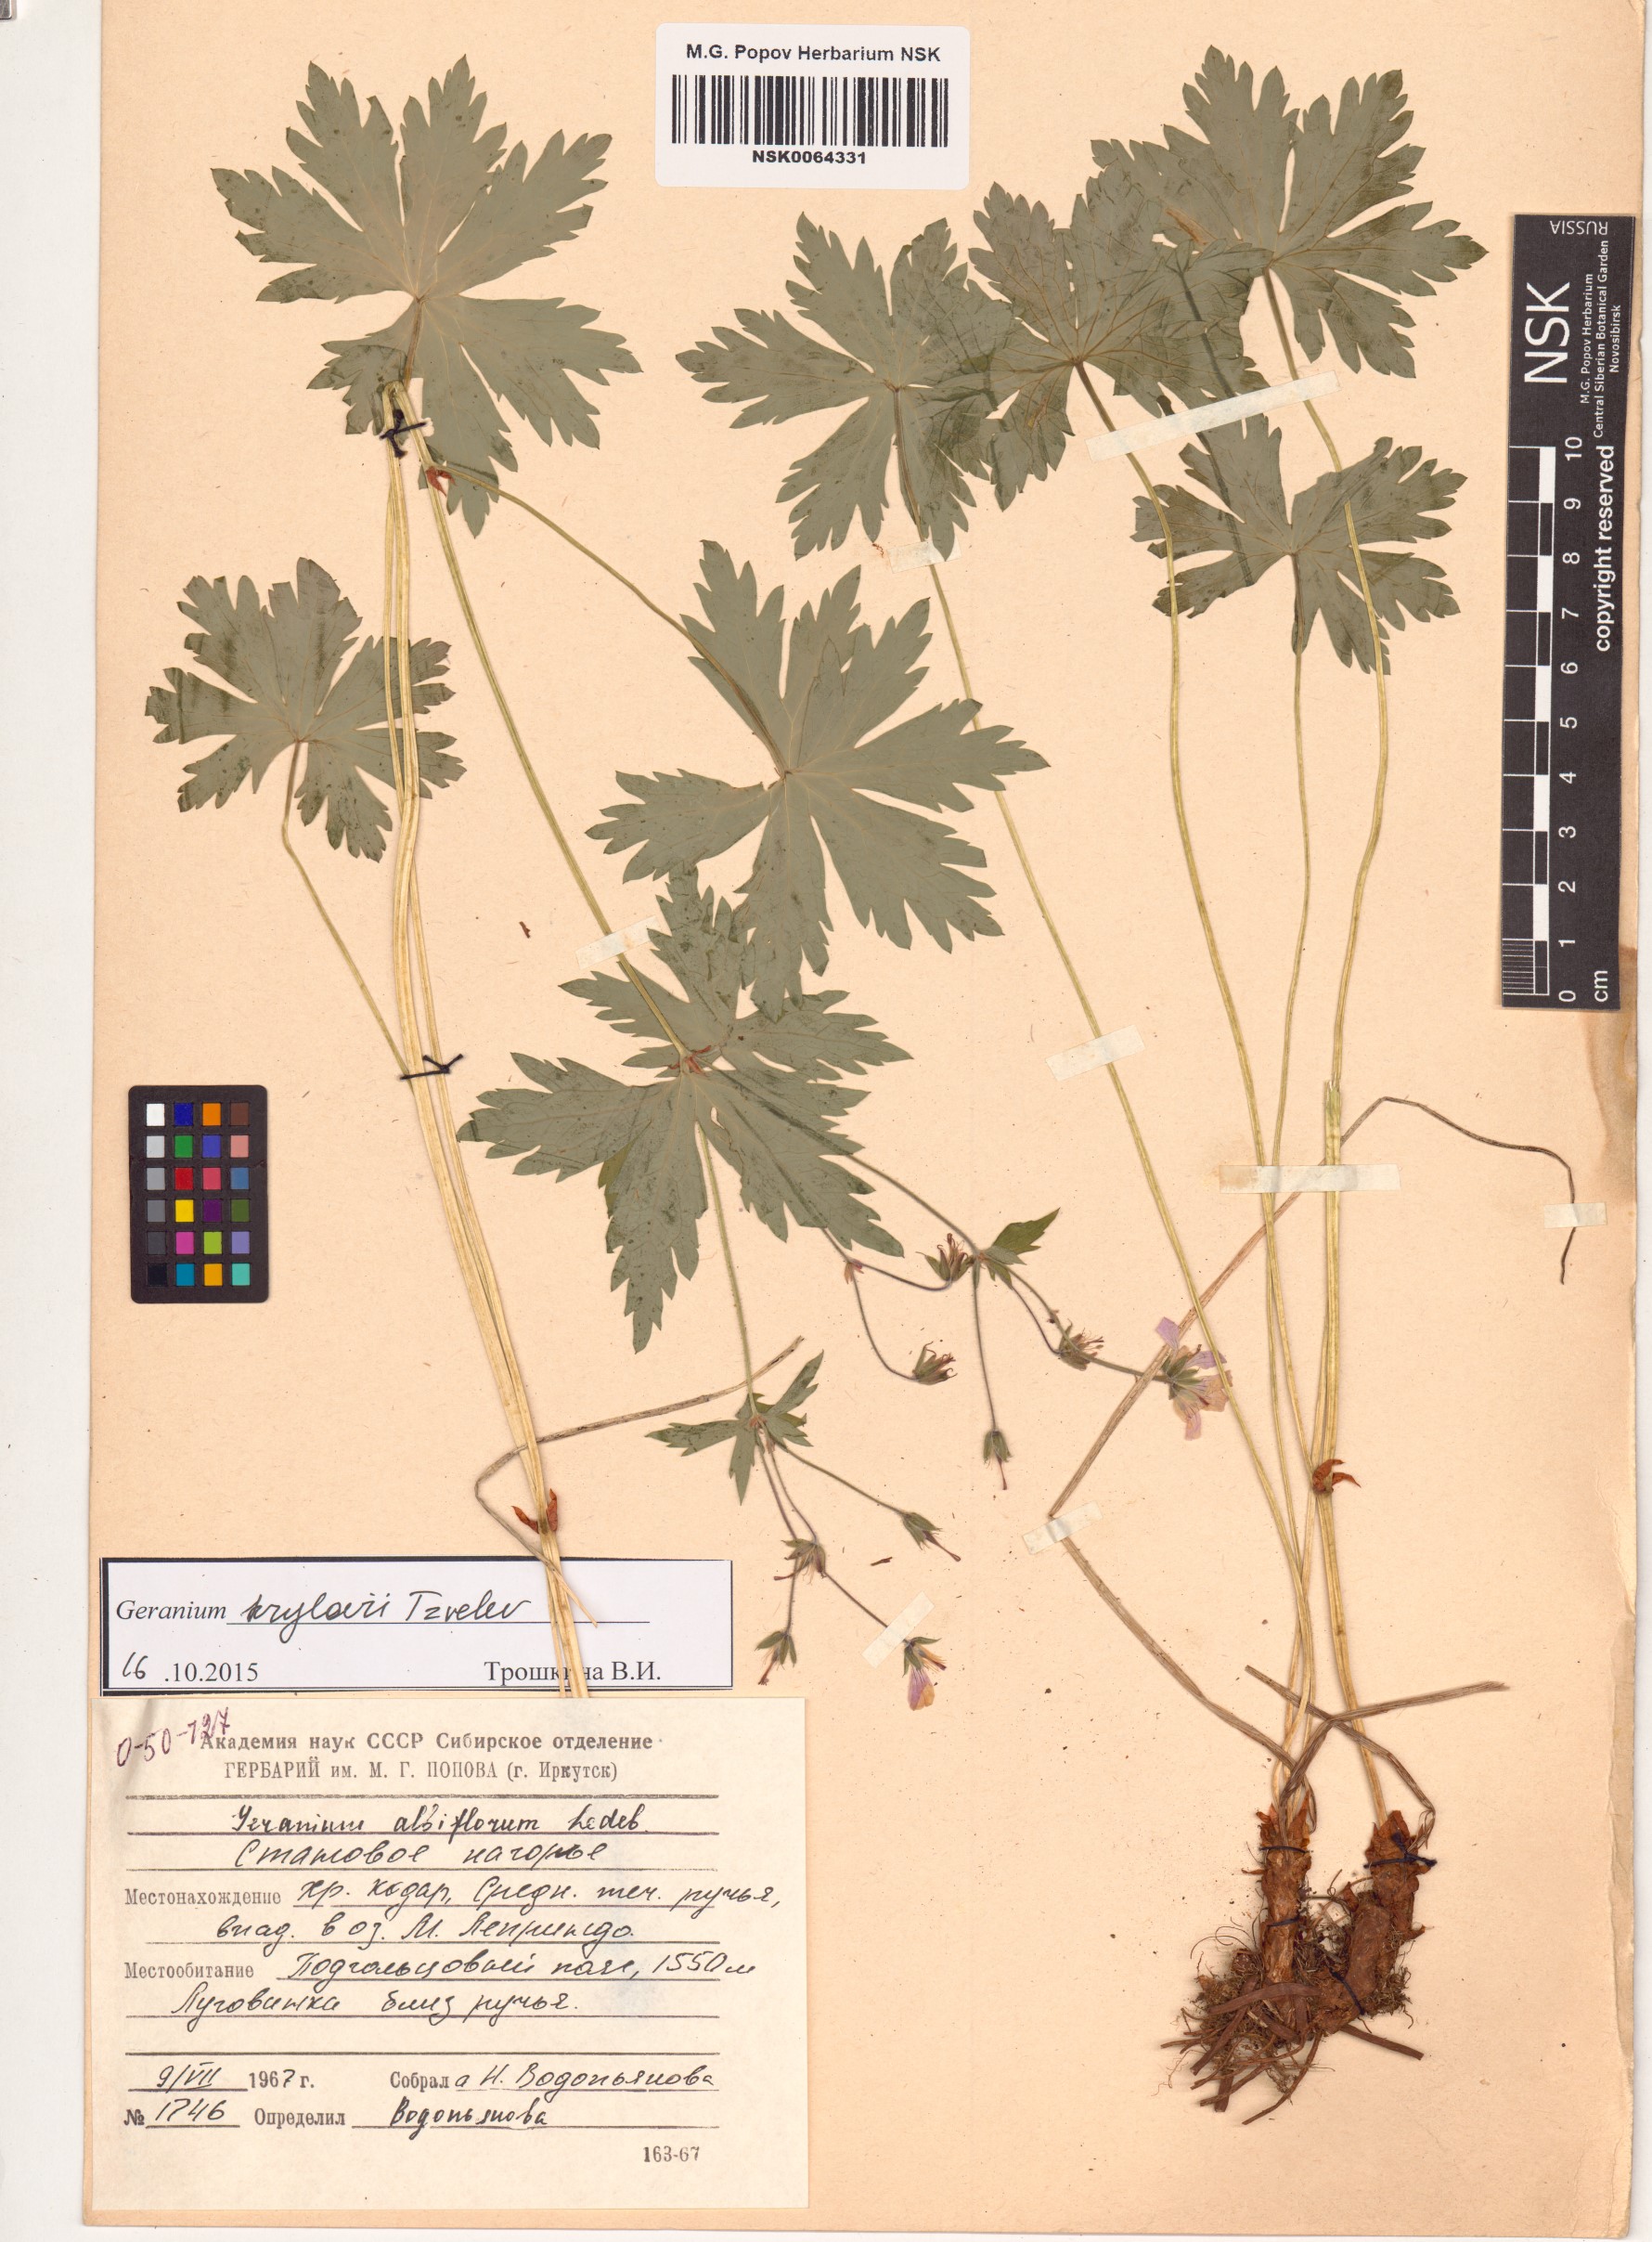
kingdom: Plantae
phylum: Tracheophyta
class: Magnoliopsida
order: Geraniales
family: Geraniaceae
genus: Geranium
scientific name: Geranium sylvaticum
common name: Wood crane's-bill
